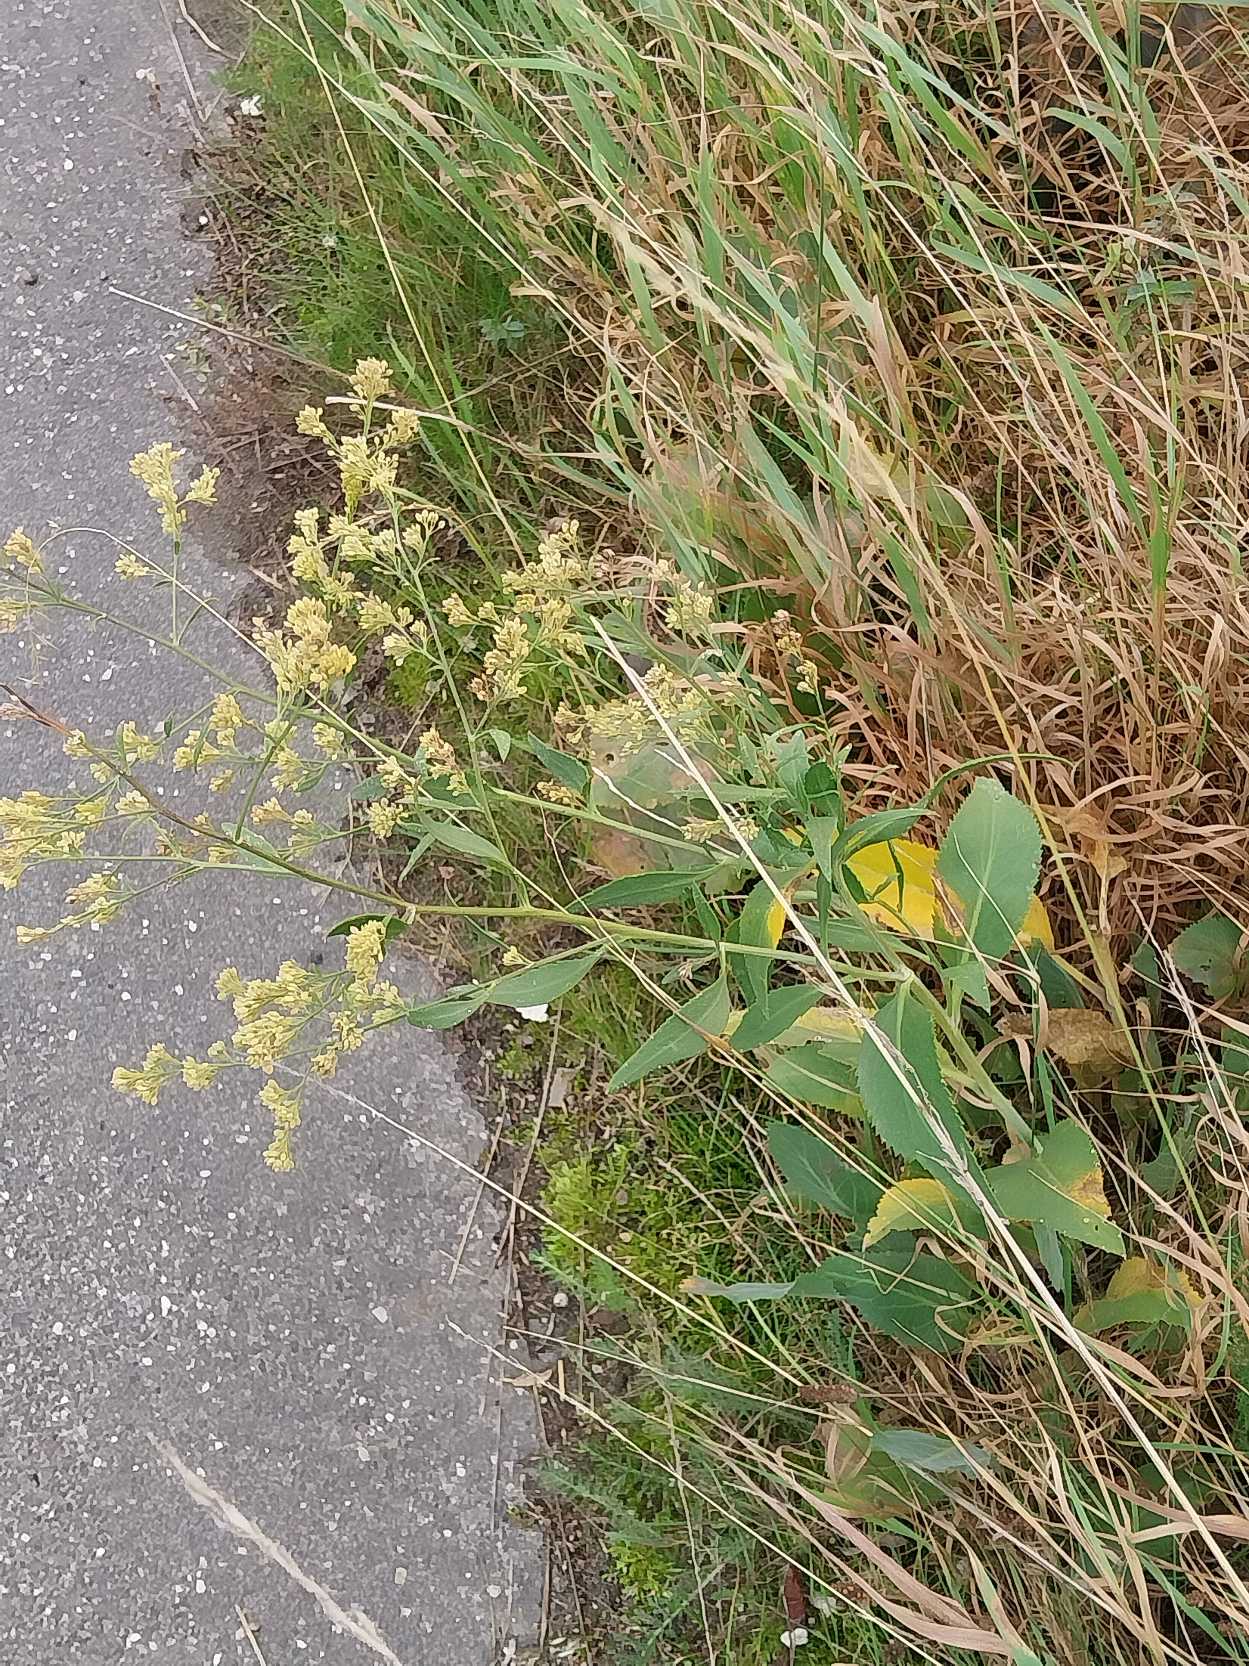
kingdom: Plantae
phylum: Tracheophyta
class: Magnoliopsida
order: Brassicales
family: Brassicaceae
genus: Lepidium
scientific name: Lepidium latifolium
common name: Strand-karse
